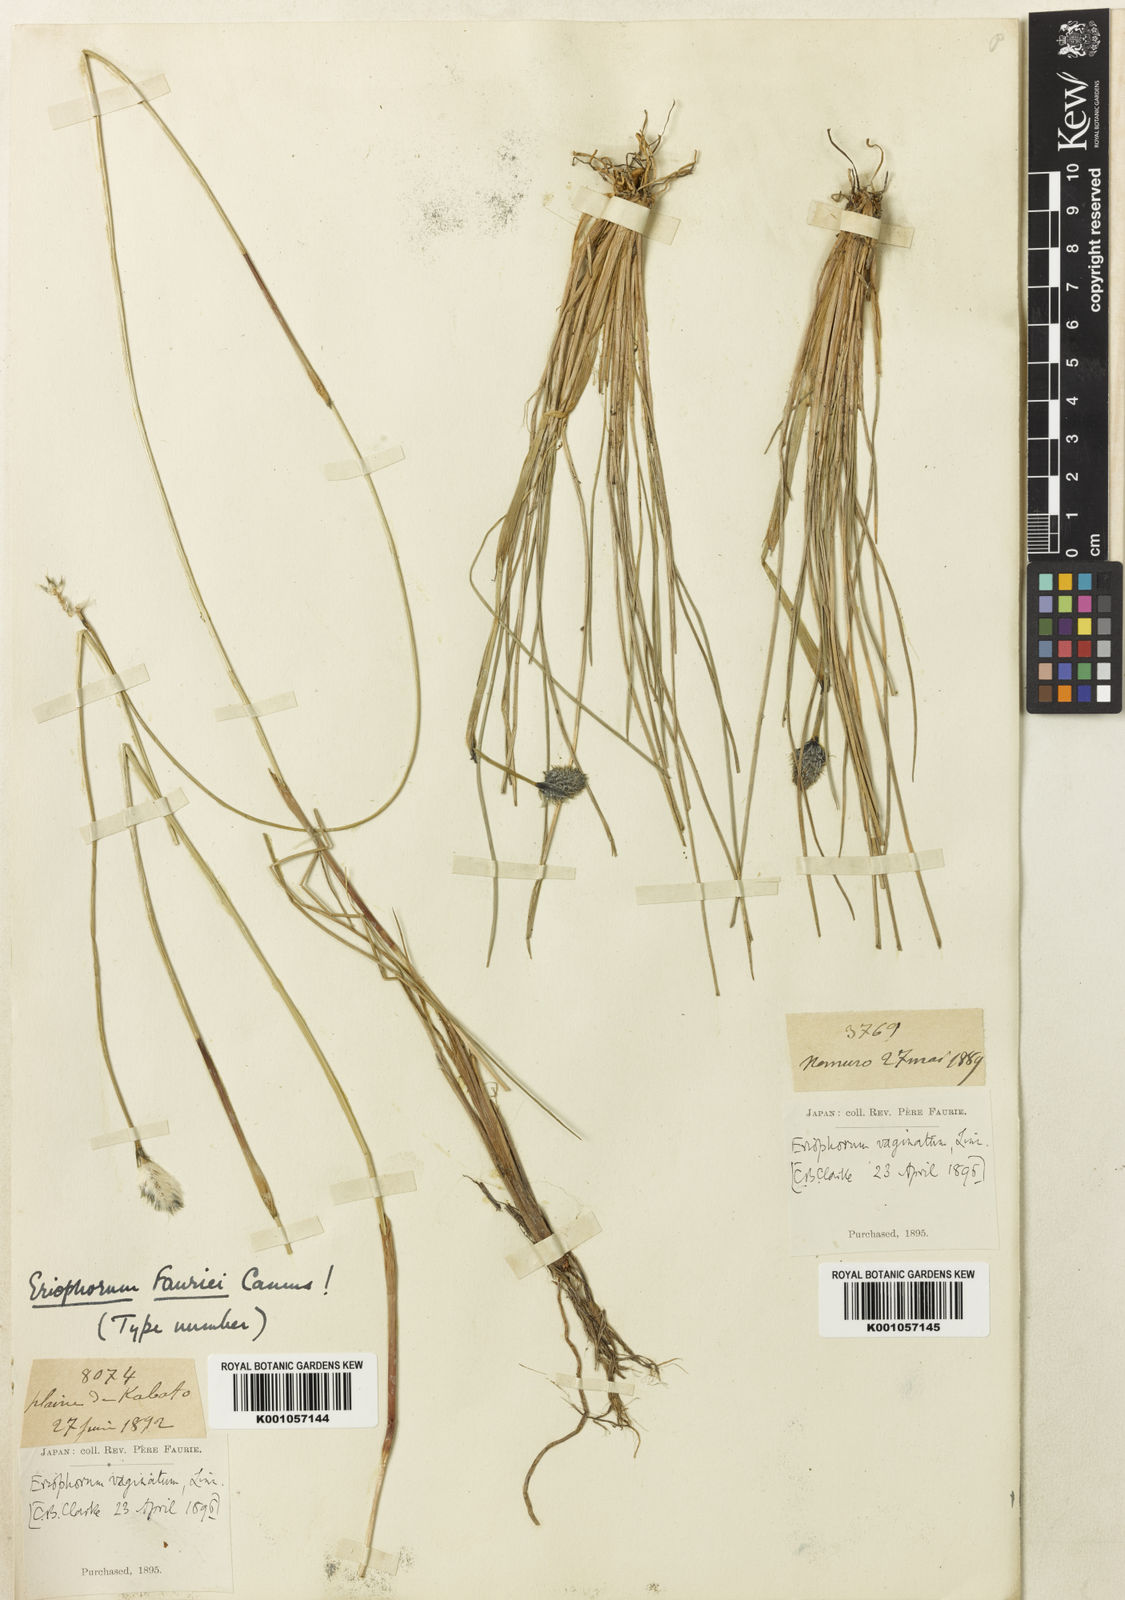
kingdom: Plantae
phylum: Tracheophyta
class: Liliopsida
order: Poales
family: Cyperaceae
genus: Eriophorum
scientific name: Eriophorum vaginatum
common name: Hare's-tail cottongrass
